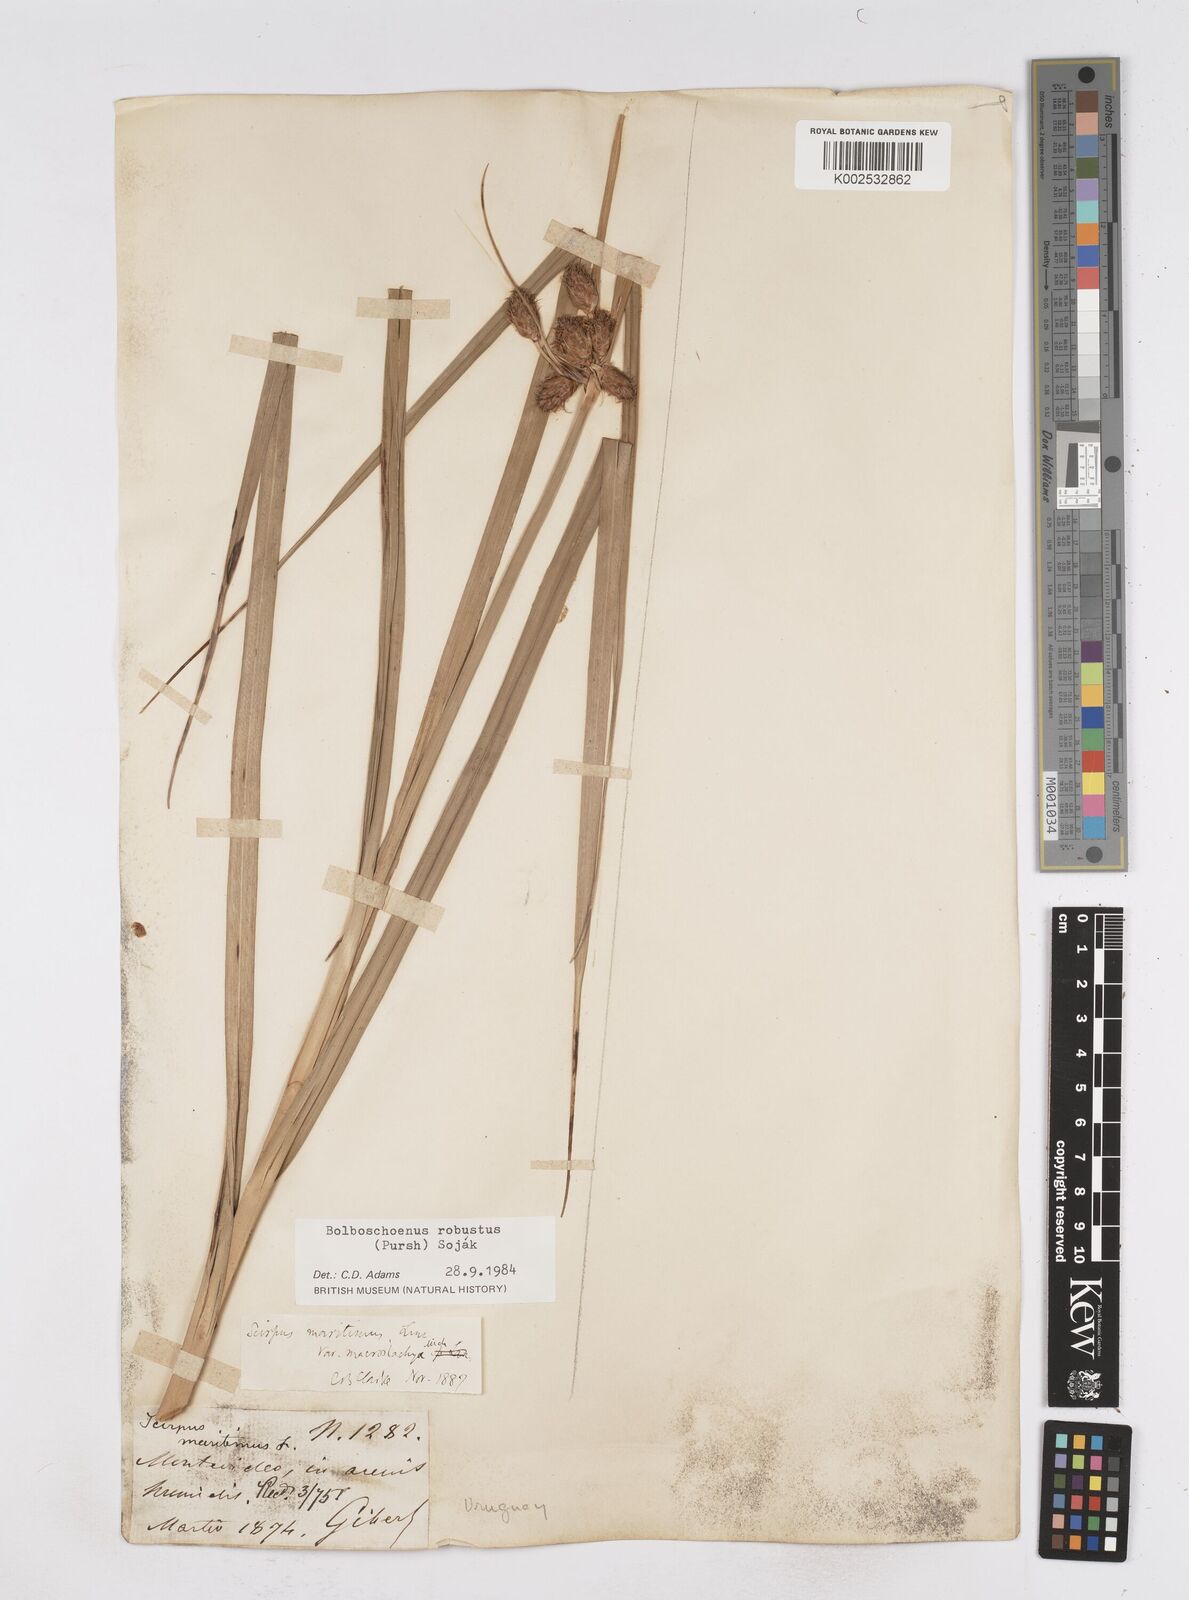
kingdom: Plantae
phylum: Tracheophyta
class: Liliopsida
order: Poales
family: Cyperaceae
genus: Bolboschoenus
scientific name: Bolboschoenus robustus
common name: Seacoast bulrush
